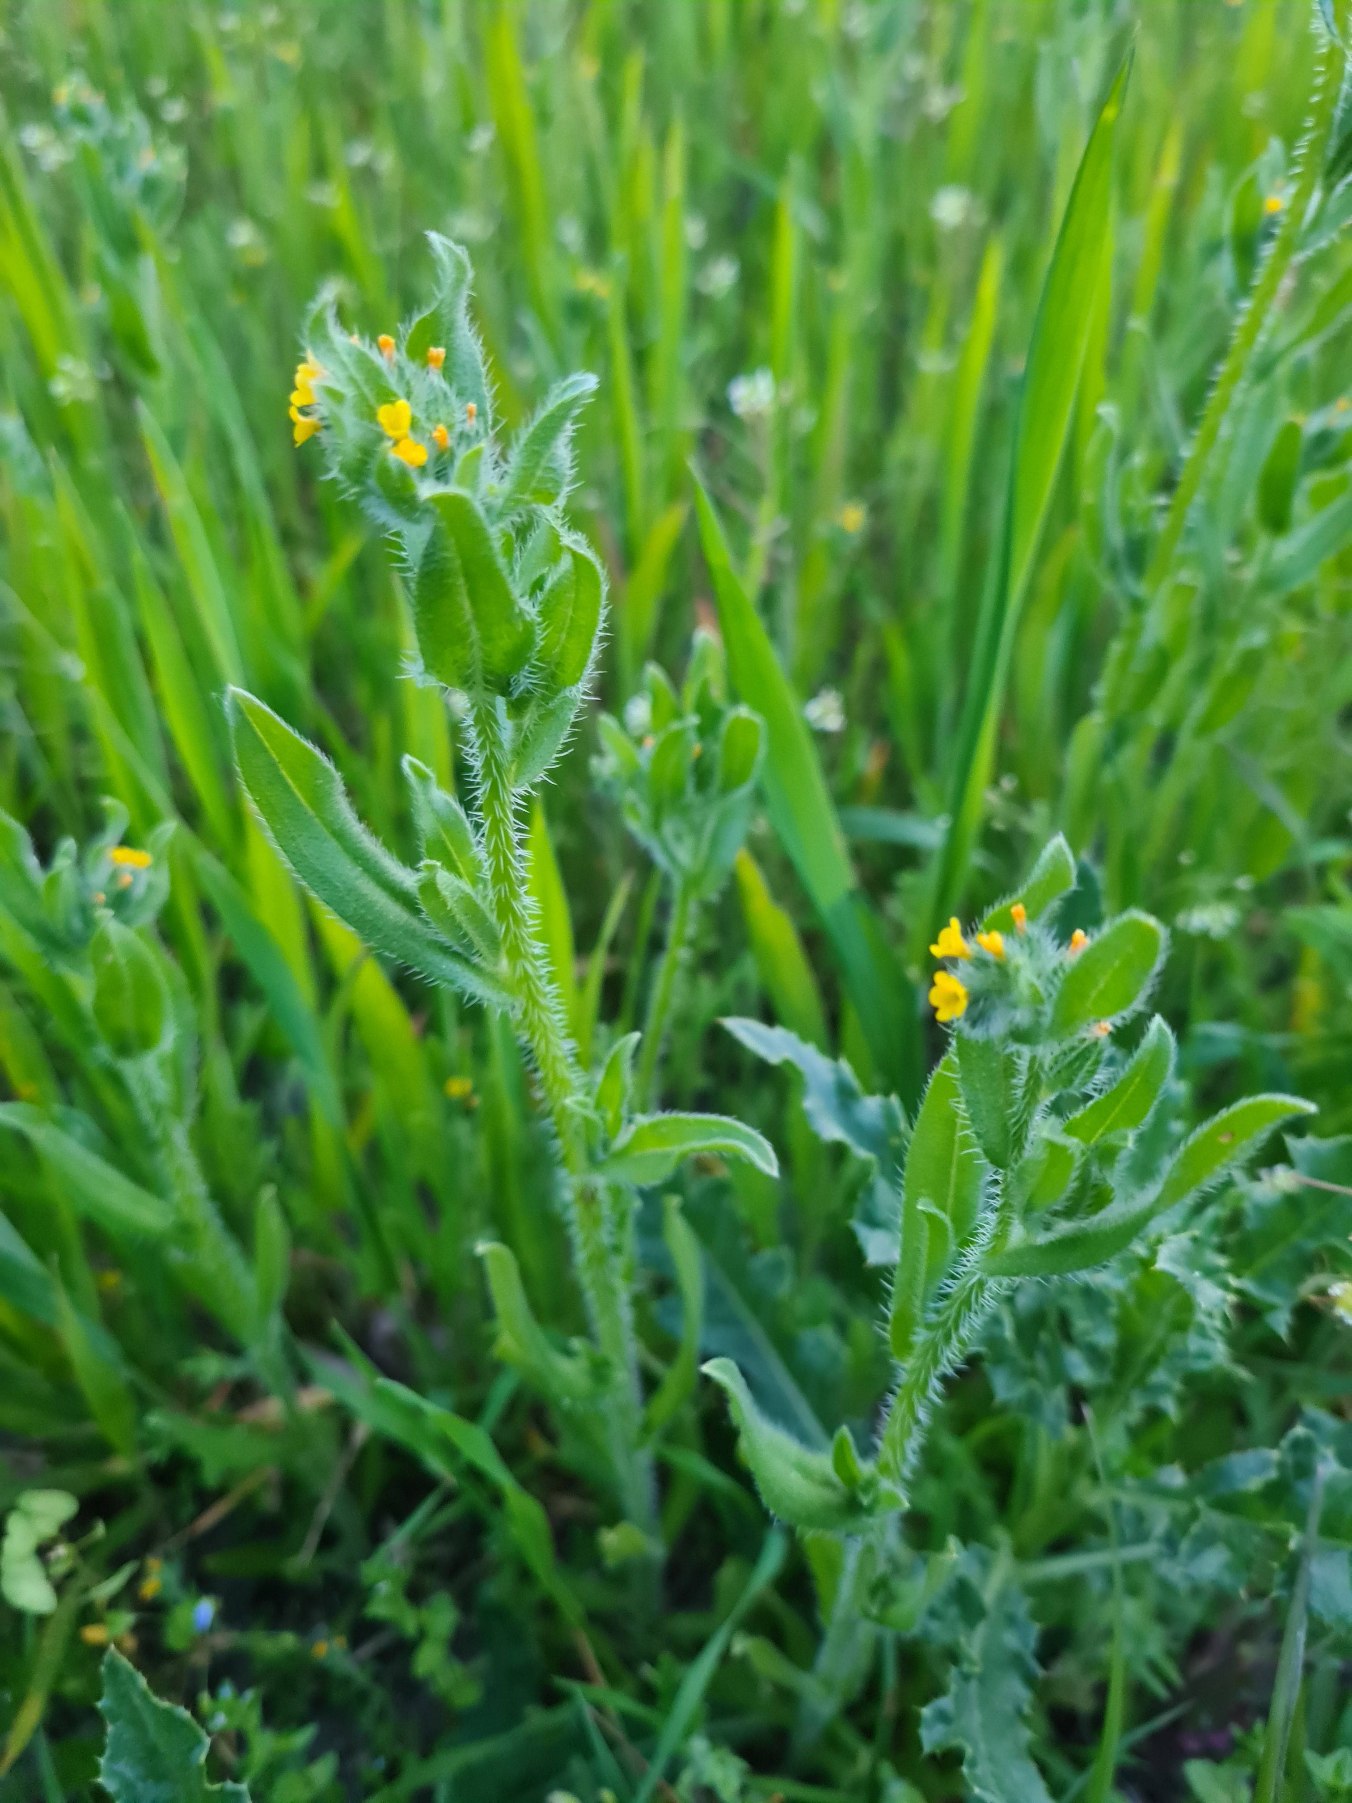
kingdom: Plantae
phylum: Tracheophyta
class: Magnoliopsida
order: Boraginales
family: Boraginaceae
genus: Amsinckia
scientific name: Amsinckia menziesii
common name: Småblomstret gulurt
